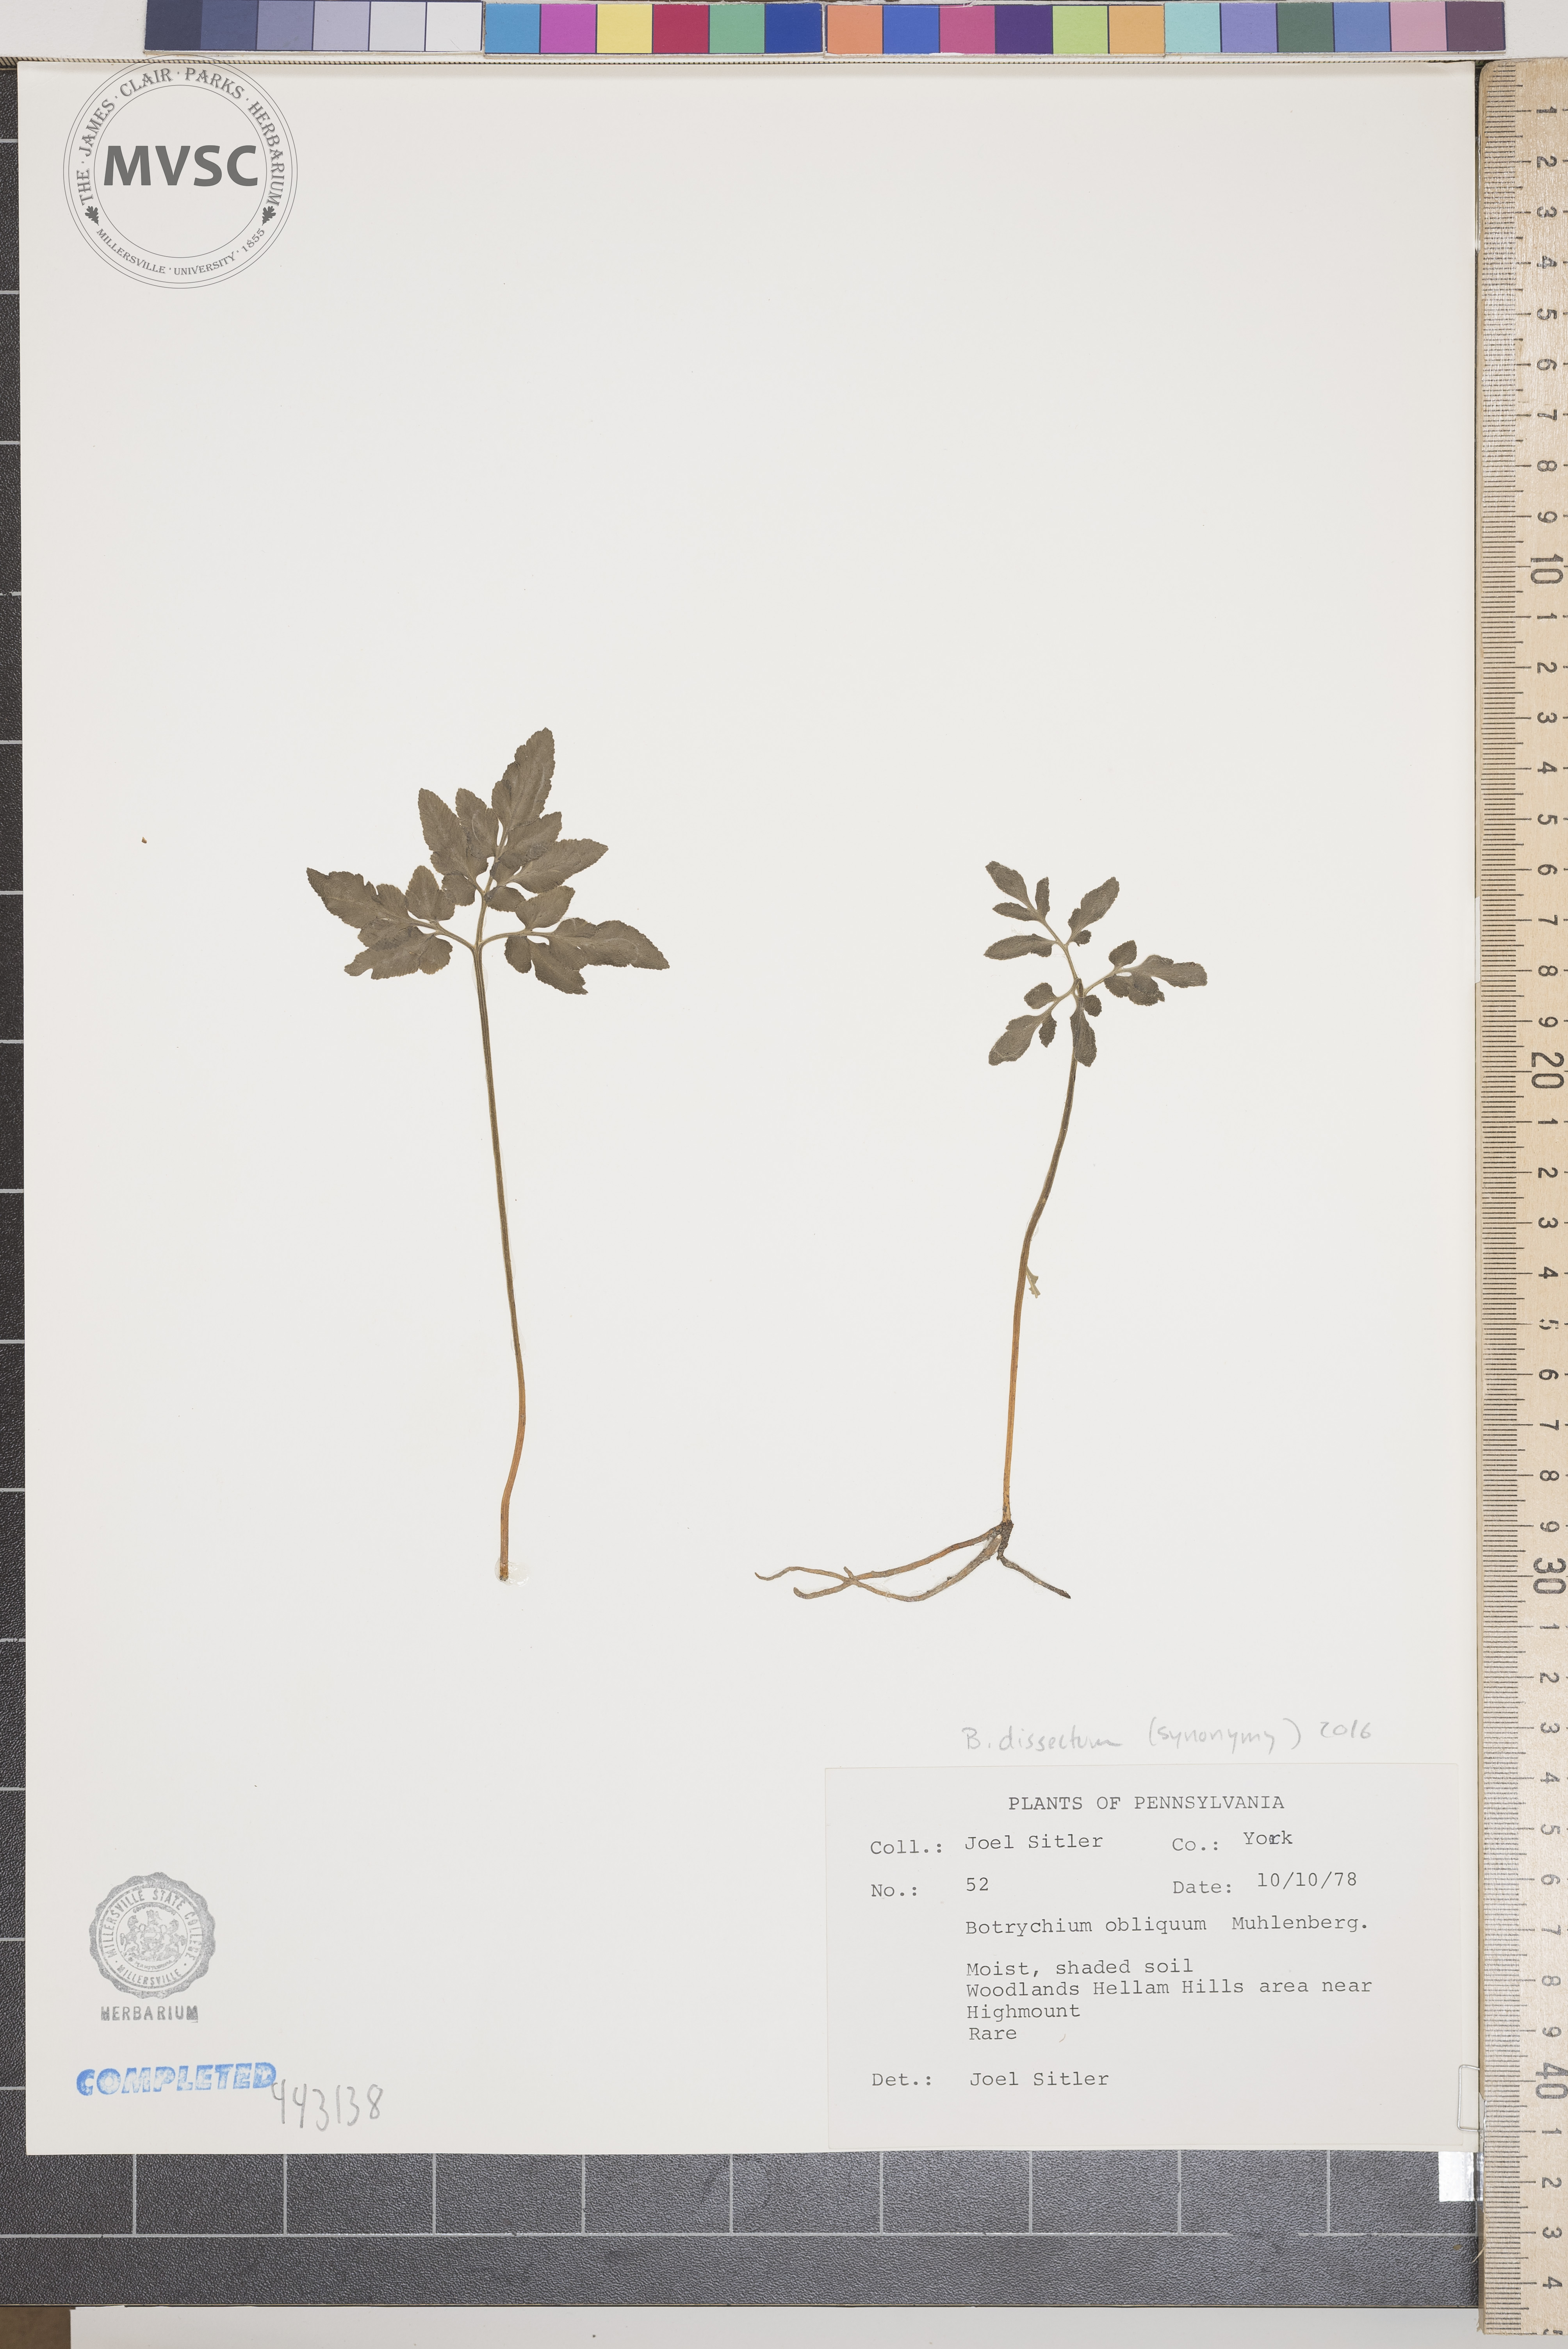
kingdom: Plantae
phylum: Tracheophyta
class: Polypodiopsida
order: Ophioglossales
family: Ophioglossaceae
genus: Sceptridium
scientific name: Sceptridium dissectum
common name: Cut-leaved grapefern
